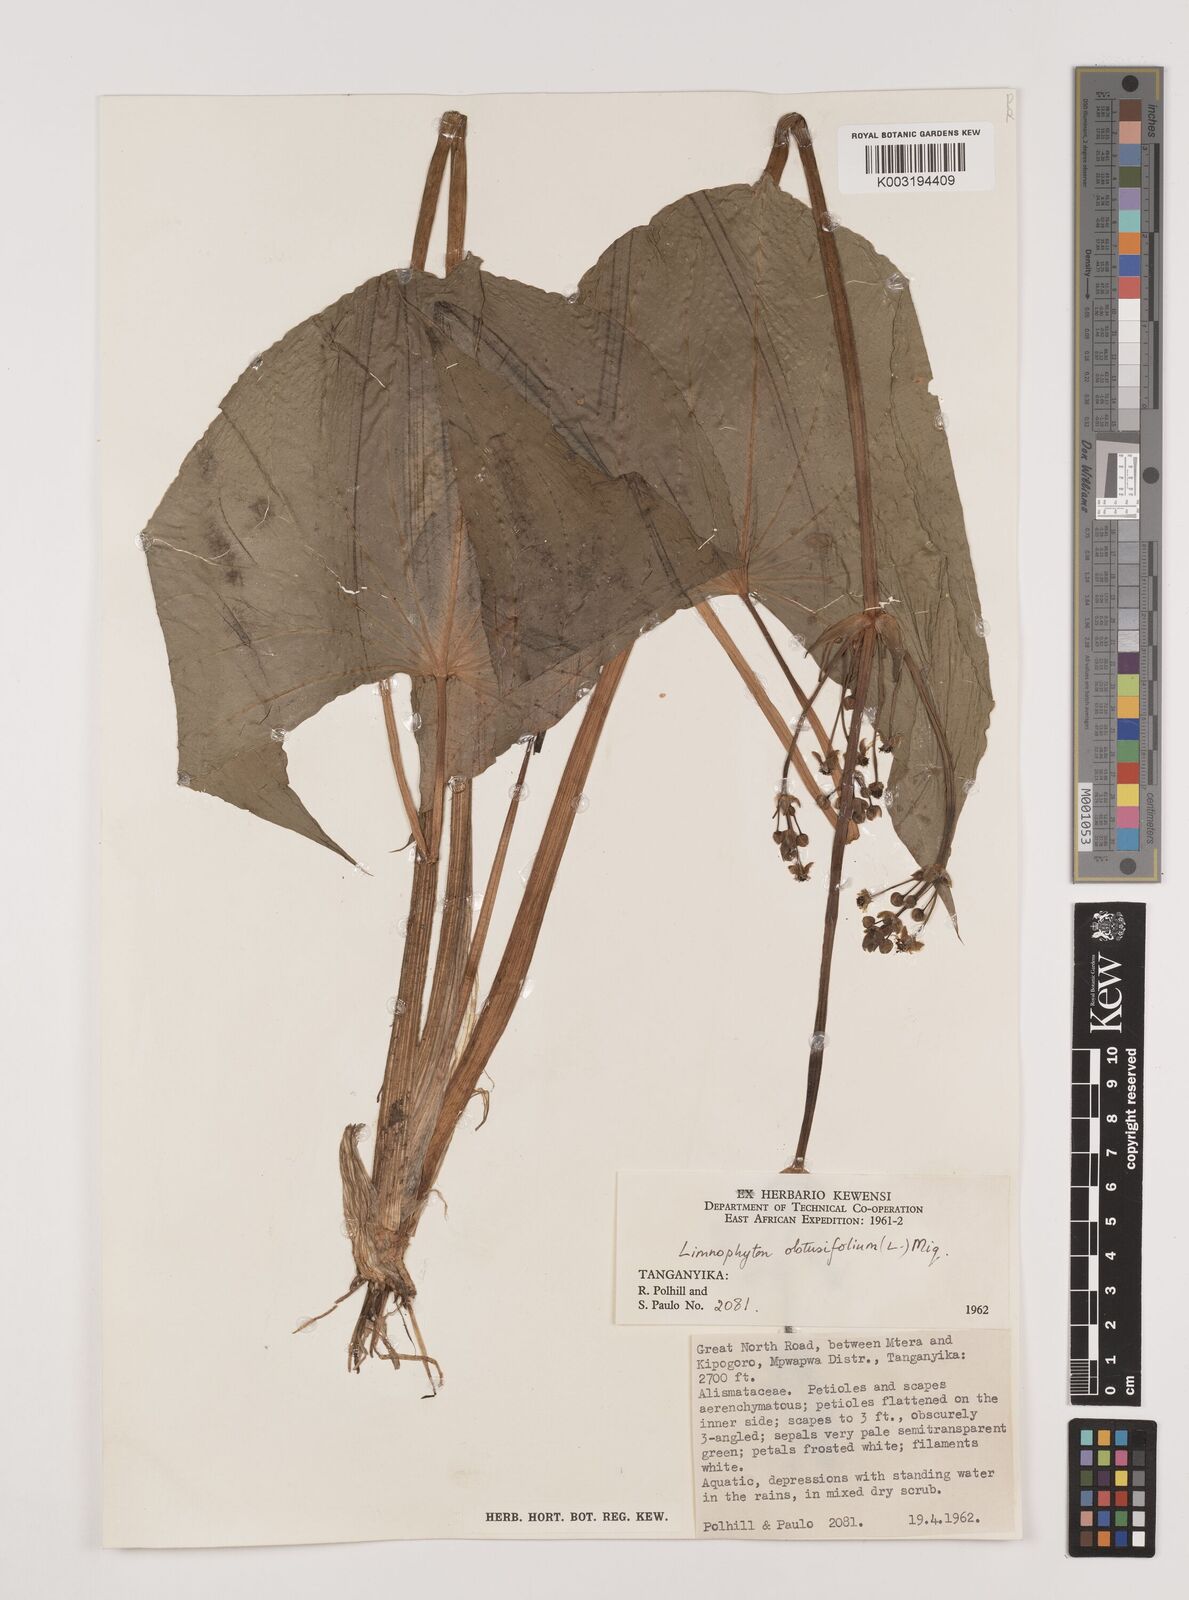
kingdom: Plantae
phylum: Tracheophyta
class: Liliopsida
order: Alismatales
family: Alismataceae
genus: Limnophyton
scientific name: Limnophyton obtusifolium
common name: Arrow head
